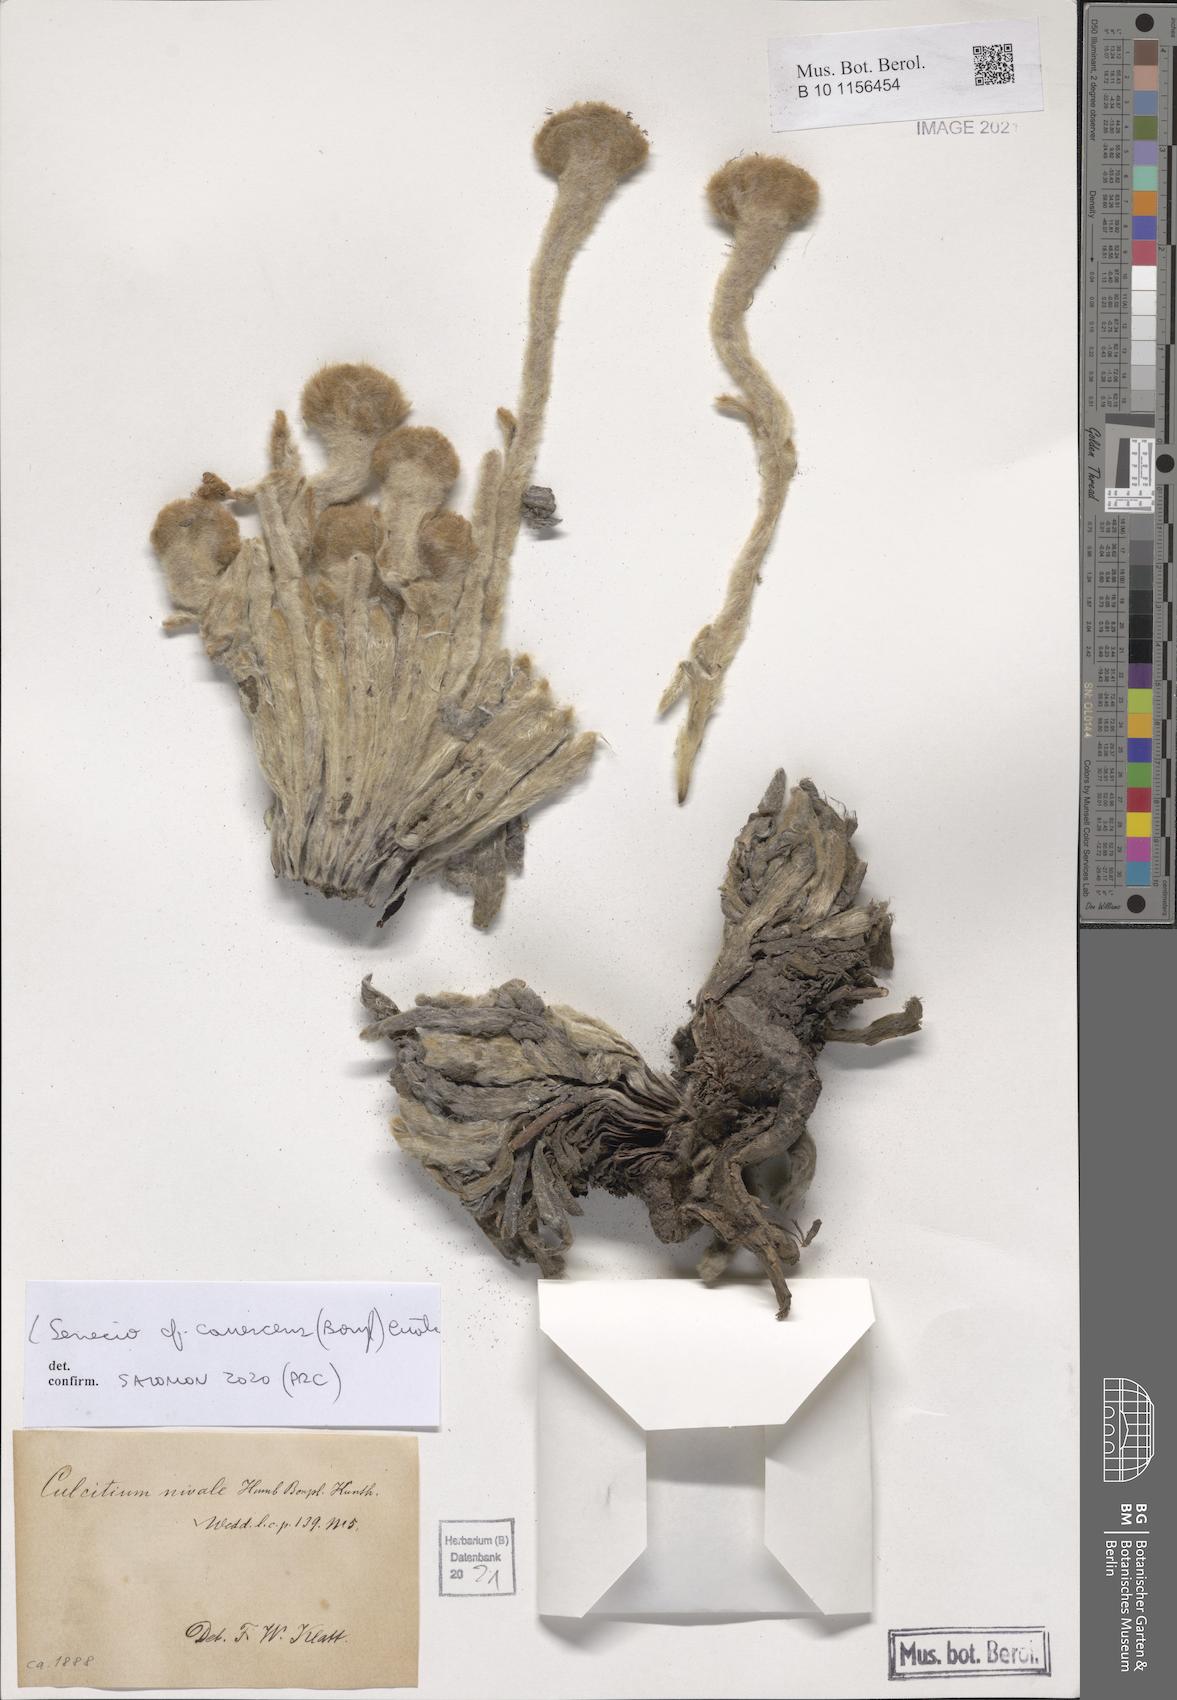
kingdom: Plantae
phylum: Tracheophyta
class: Magnoliopsida
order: Asterales
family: Asteraceae
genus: Culcitium
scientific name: Culcitium canescens
